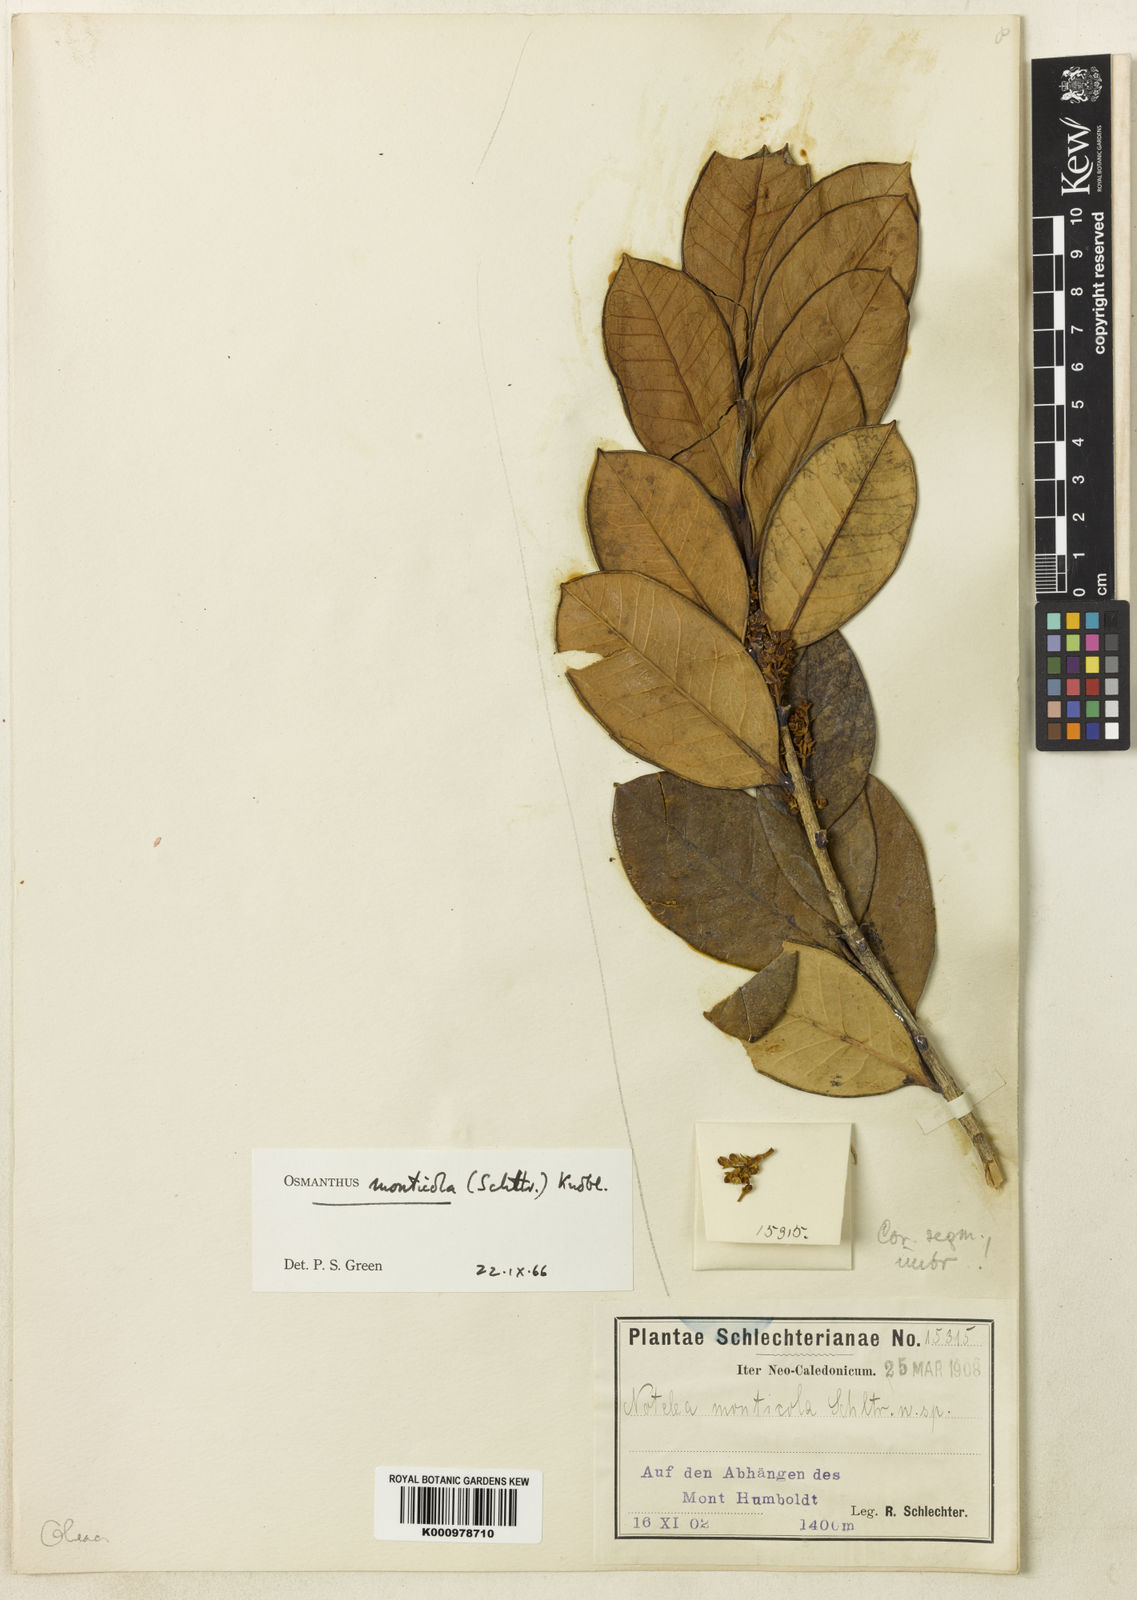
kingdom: Plantae
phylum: Tracheophyta
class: Magnoliopsida
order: Lamiales
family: Oleaceae
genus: Osmanthus
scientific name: Osmanthus monticola
